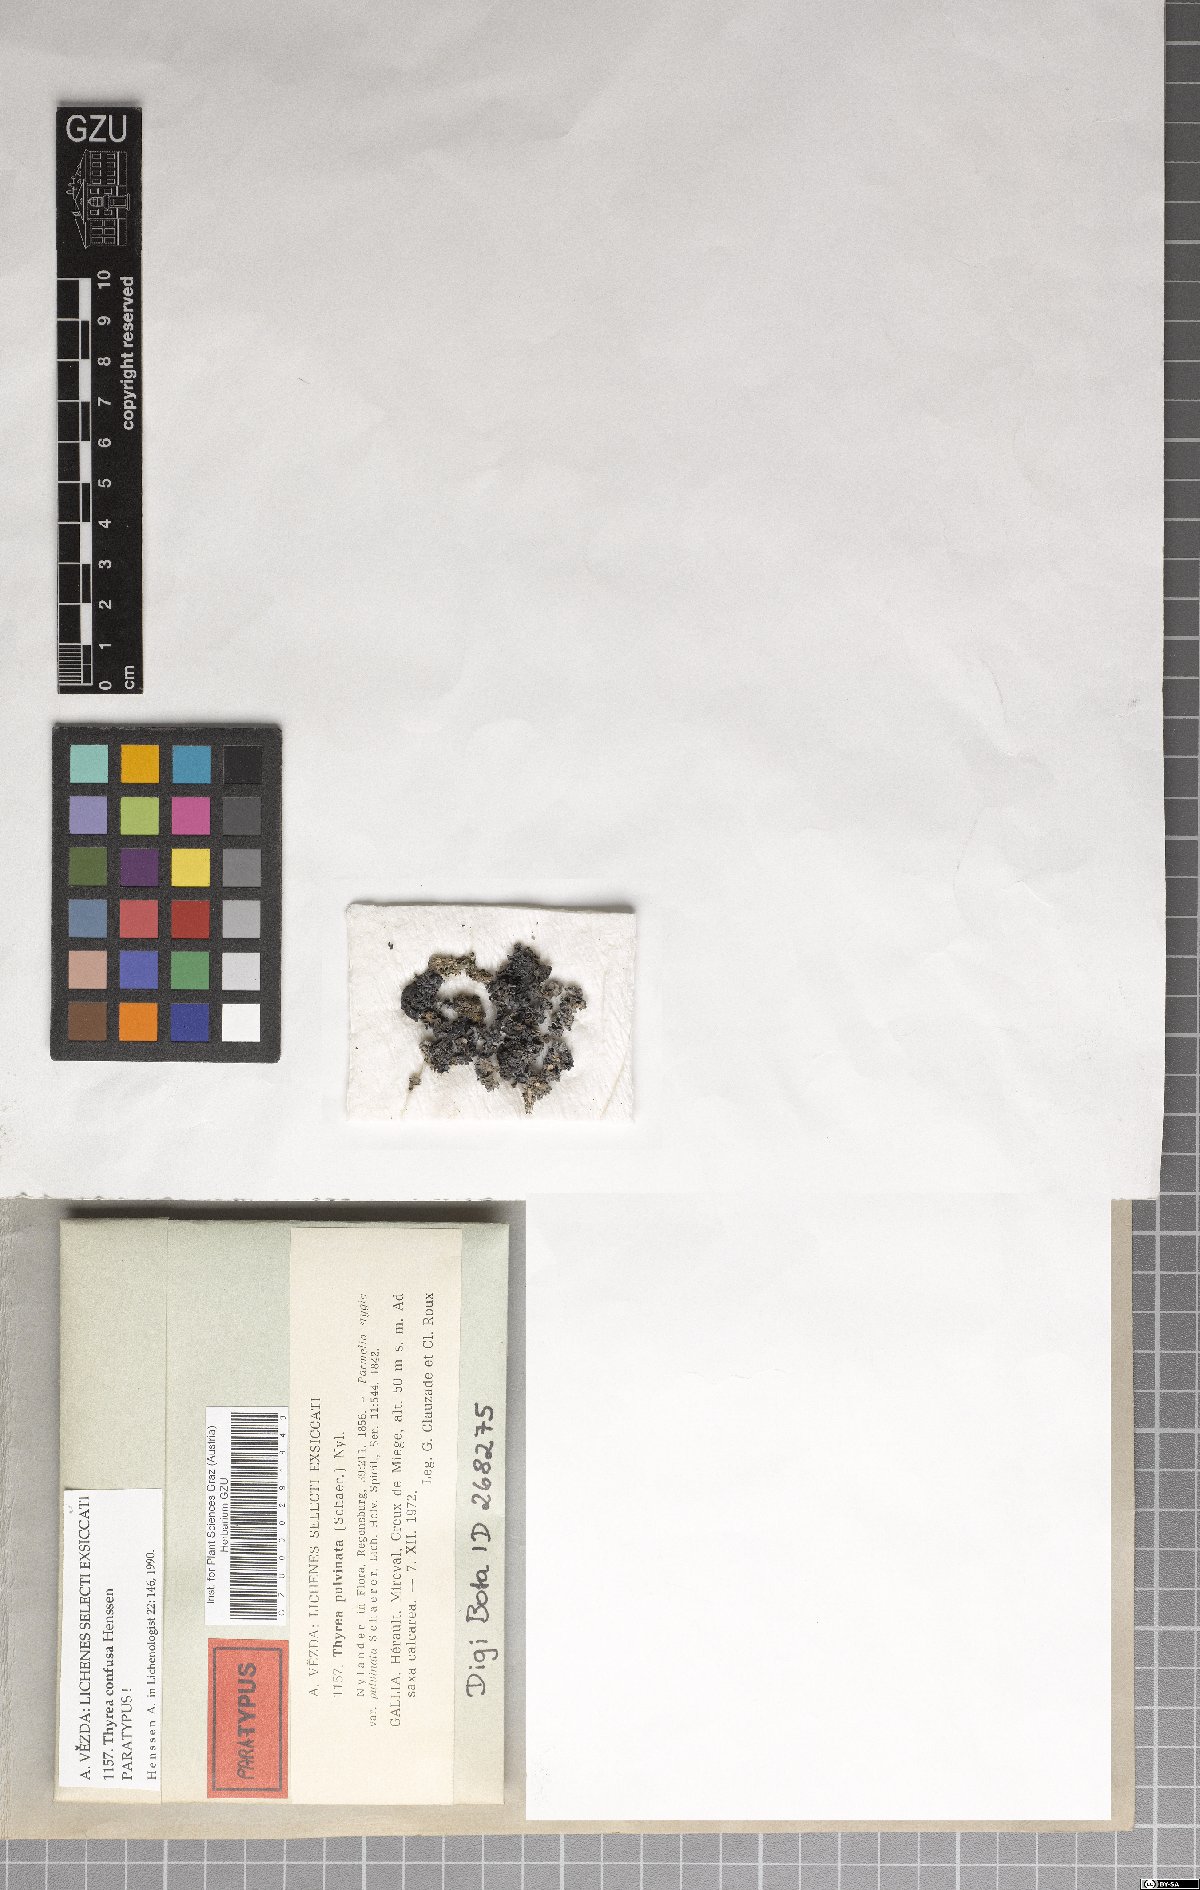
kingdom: Fungi
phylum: Ascomycota
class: Lichinomycetes
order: Lichinales
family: Lichinaceae
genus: Thyrea
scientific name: Thyrea confusa
